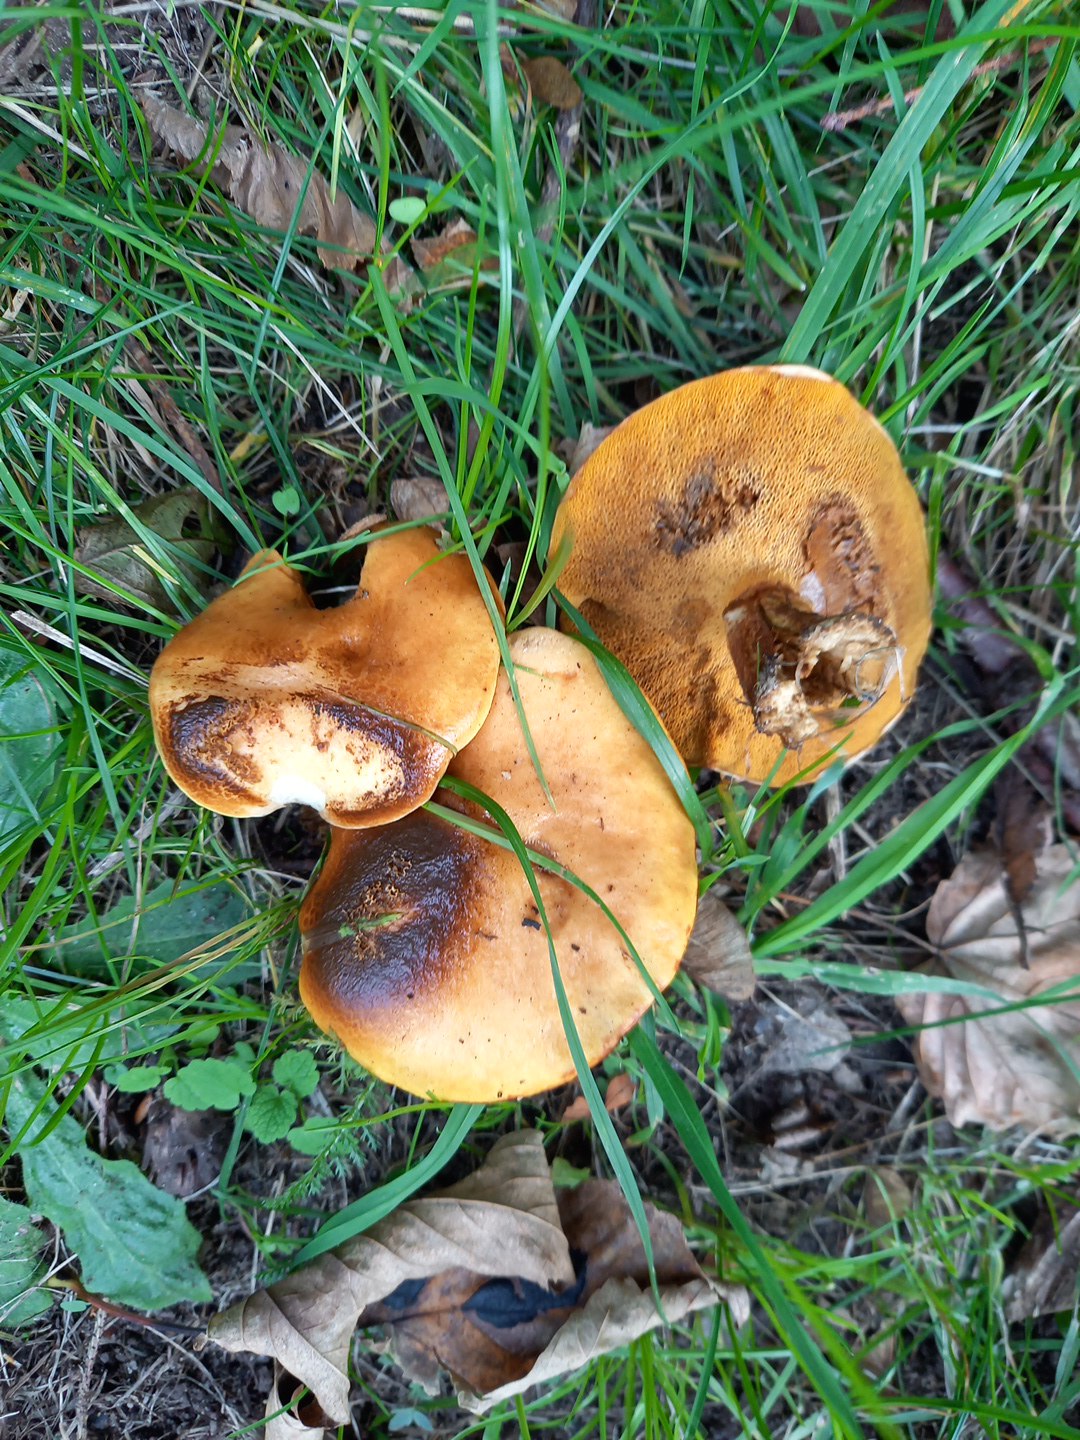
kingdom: Fungi
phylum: Basidiomycota
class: Agaricomycetes
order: Boletales
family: Suillaceae
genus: Suillus
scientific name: Suillus grevillei
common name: lærke-slimrørhat
